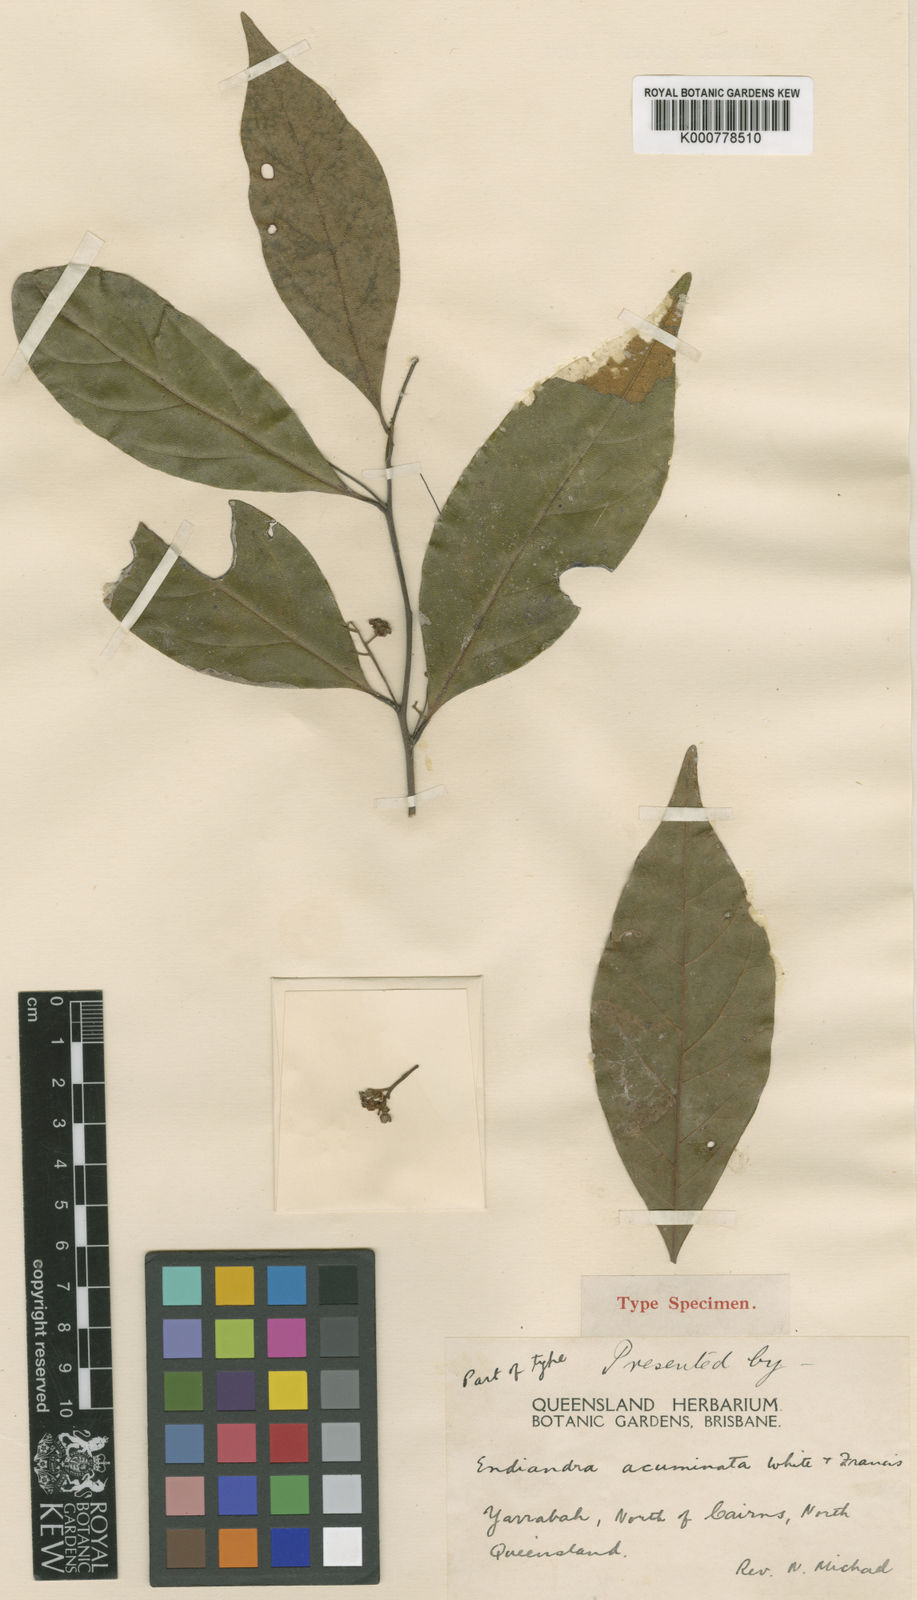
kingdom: Plantae
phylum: Tracheophyta
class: Magnoliopsida
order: Laurales
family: Lauraceae
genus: Endiandra
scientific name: Endiandra acuminata
